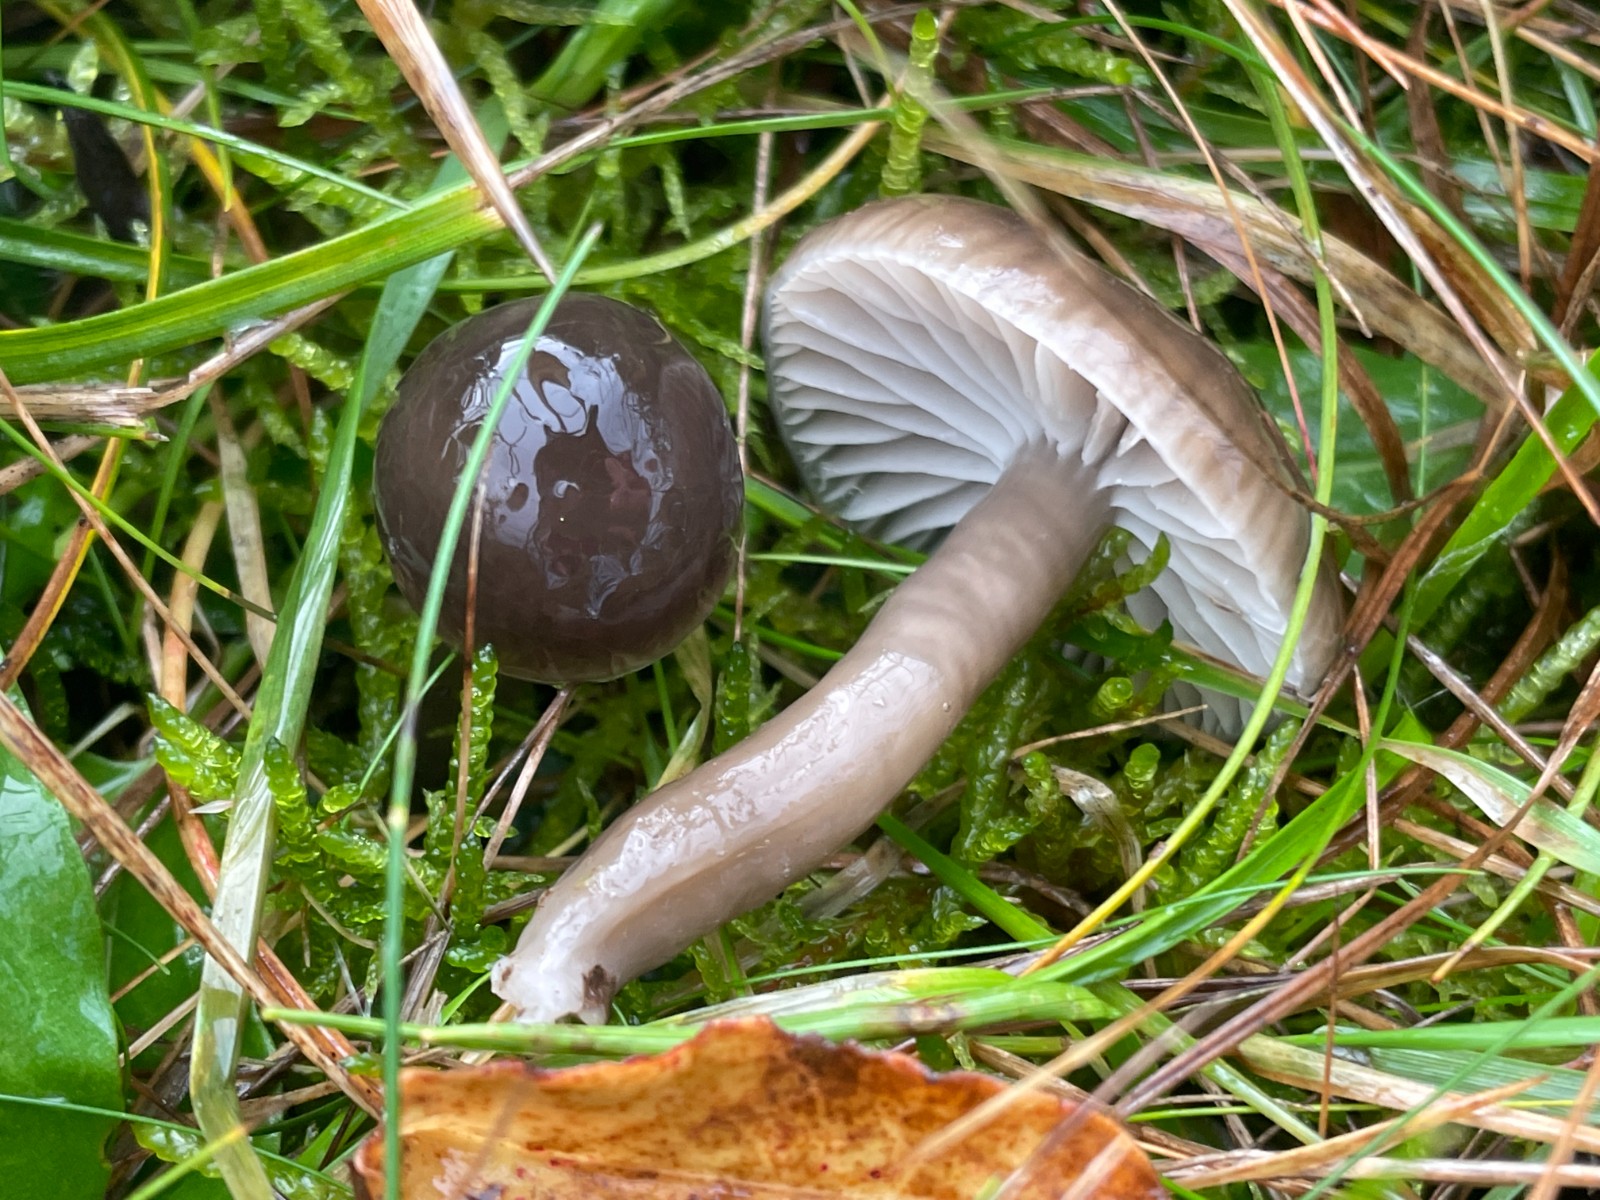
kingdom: Fungi
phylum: Basidiomycota
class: Agaricomycetes
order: Agaricales
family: Hygrophoraceae
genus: Gliophorus
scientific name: Gliophorus irrigatus
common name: slimet vokshat
